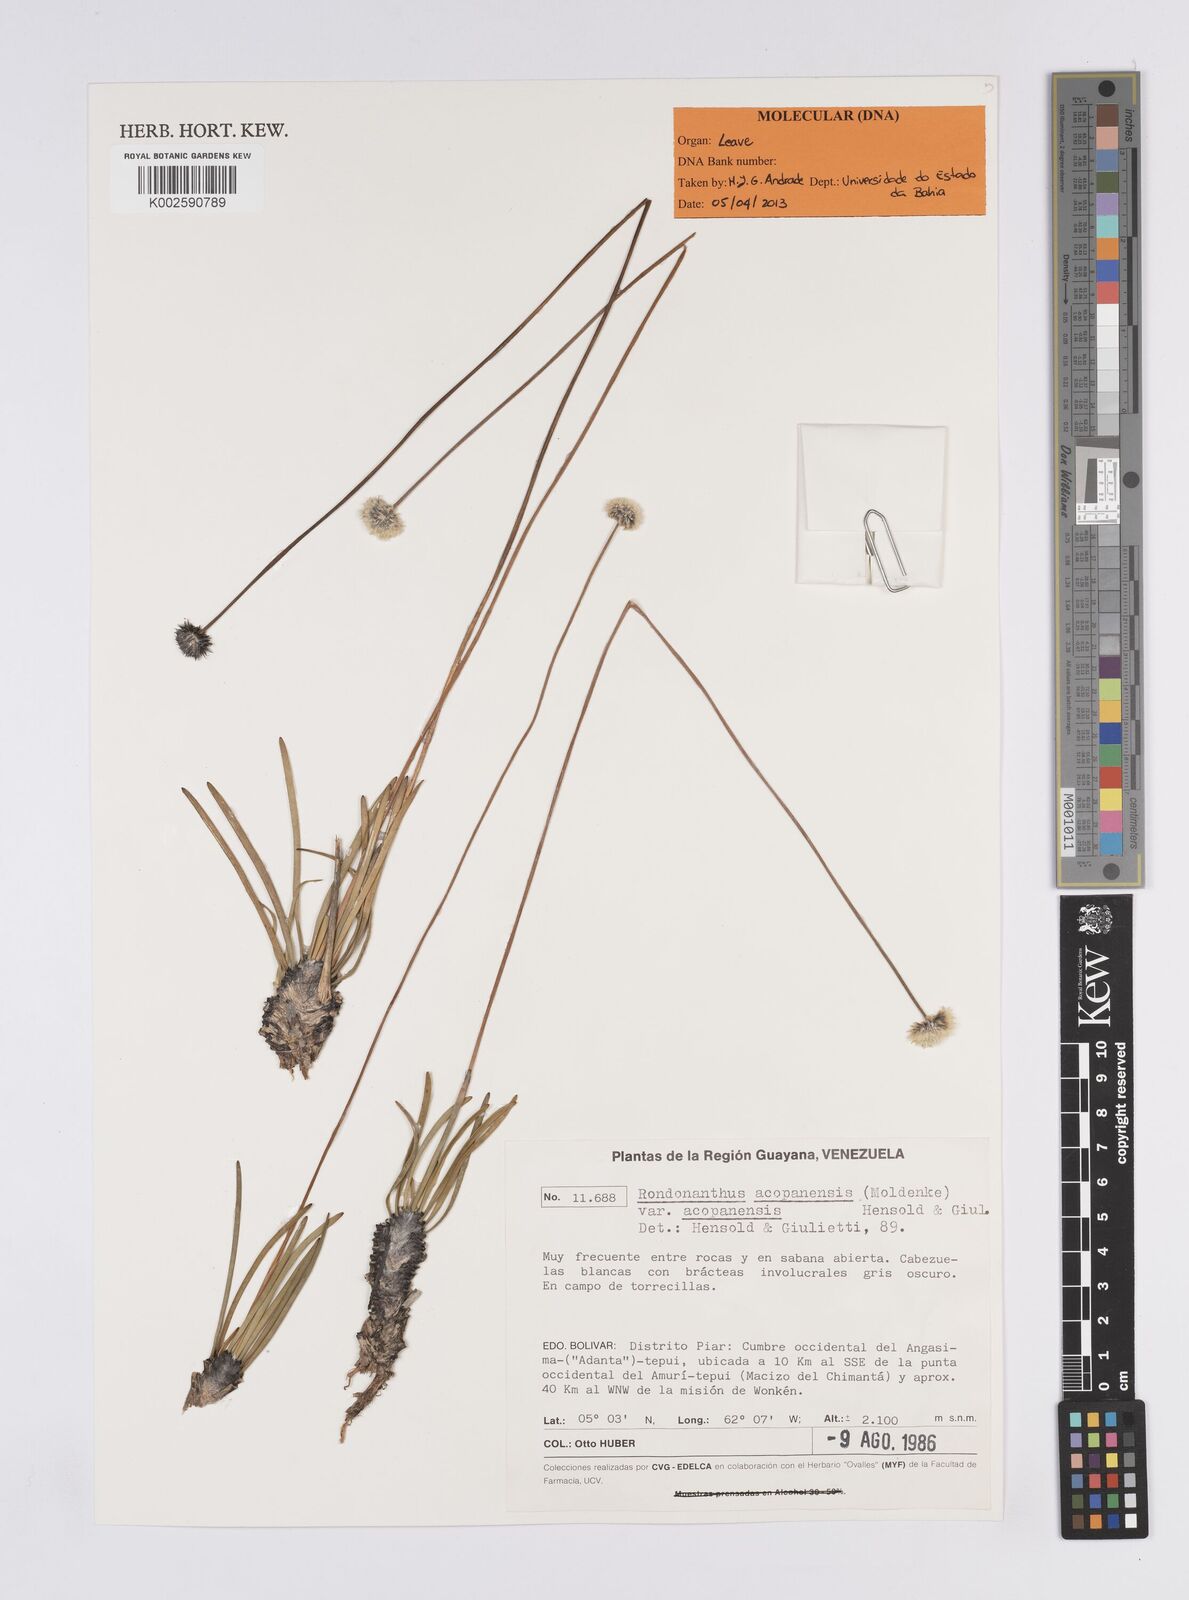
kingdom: Plantae
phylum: Tracheophyta
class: Liliopsida
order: Poales
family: Eriocaulaceae
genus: Rondonanthus
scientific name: Rondonanthus acopanensis
